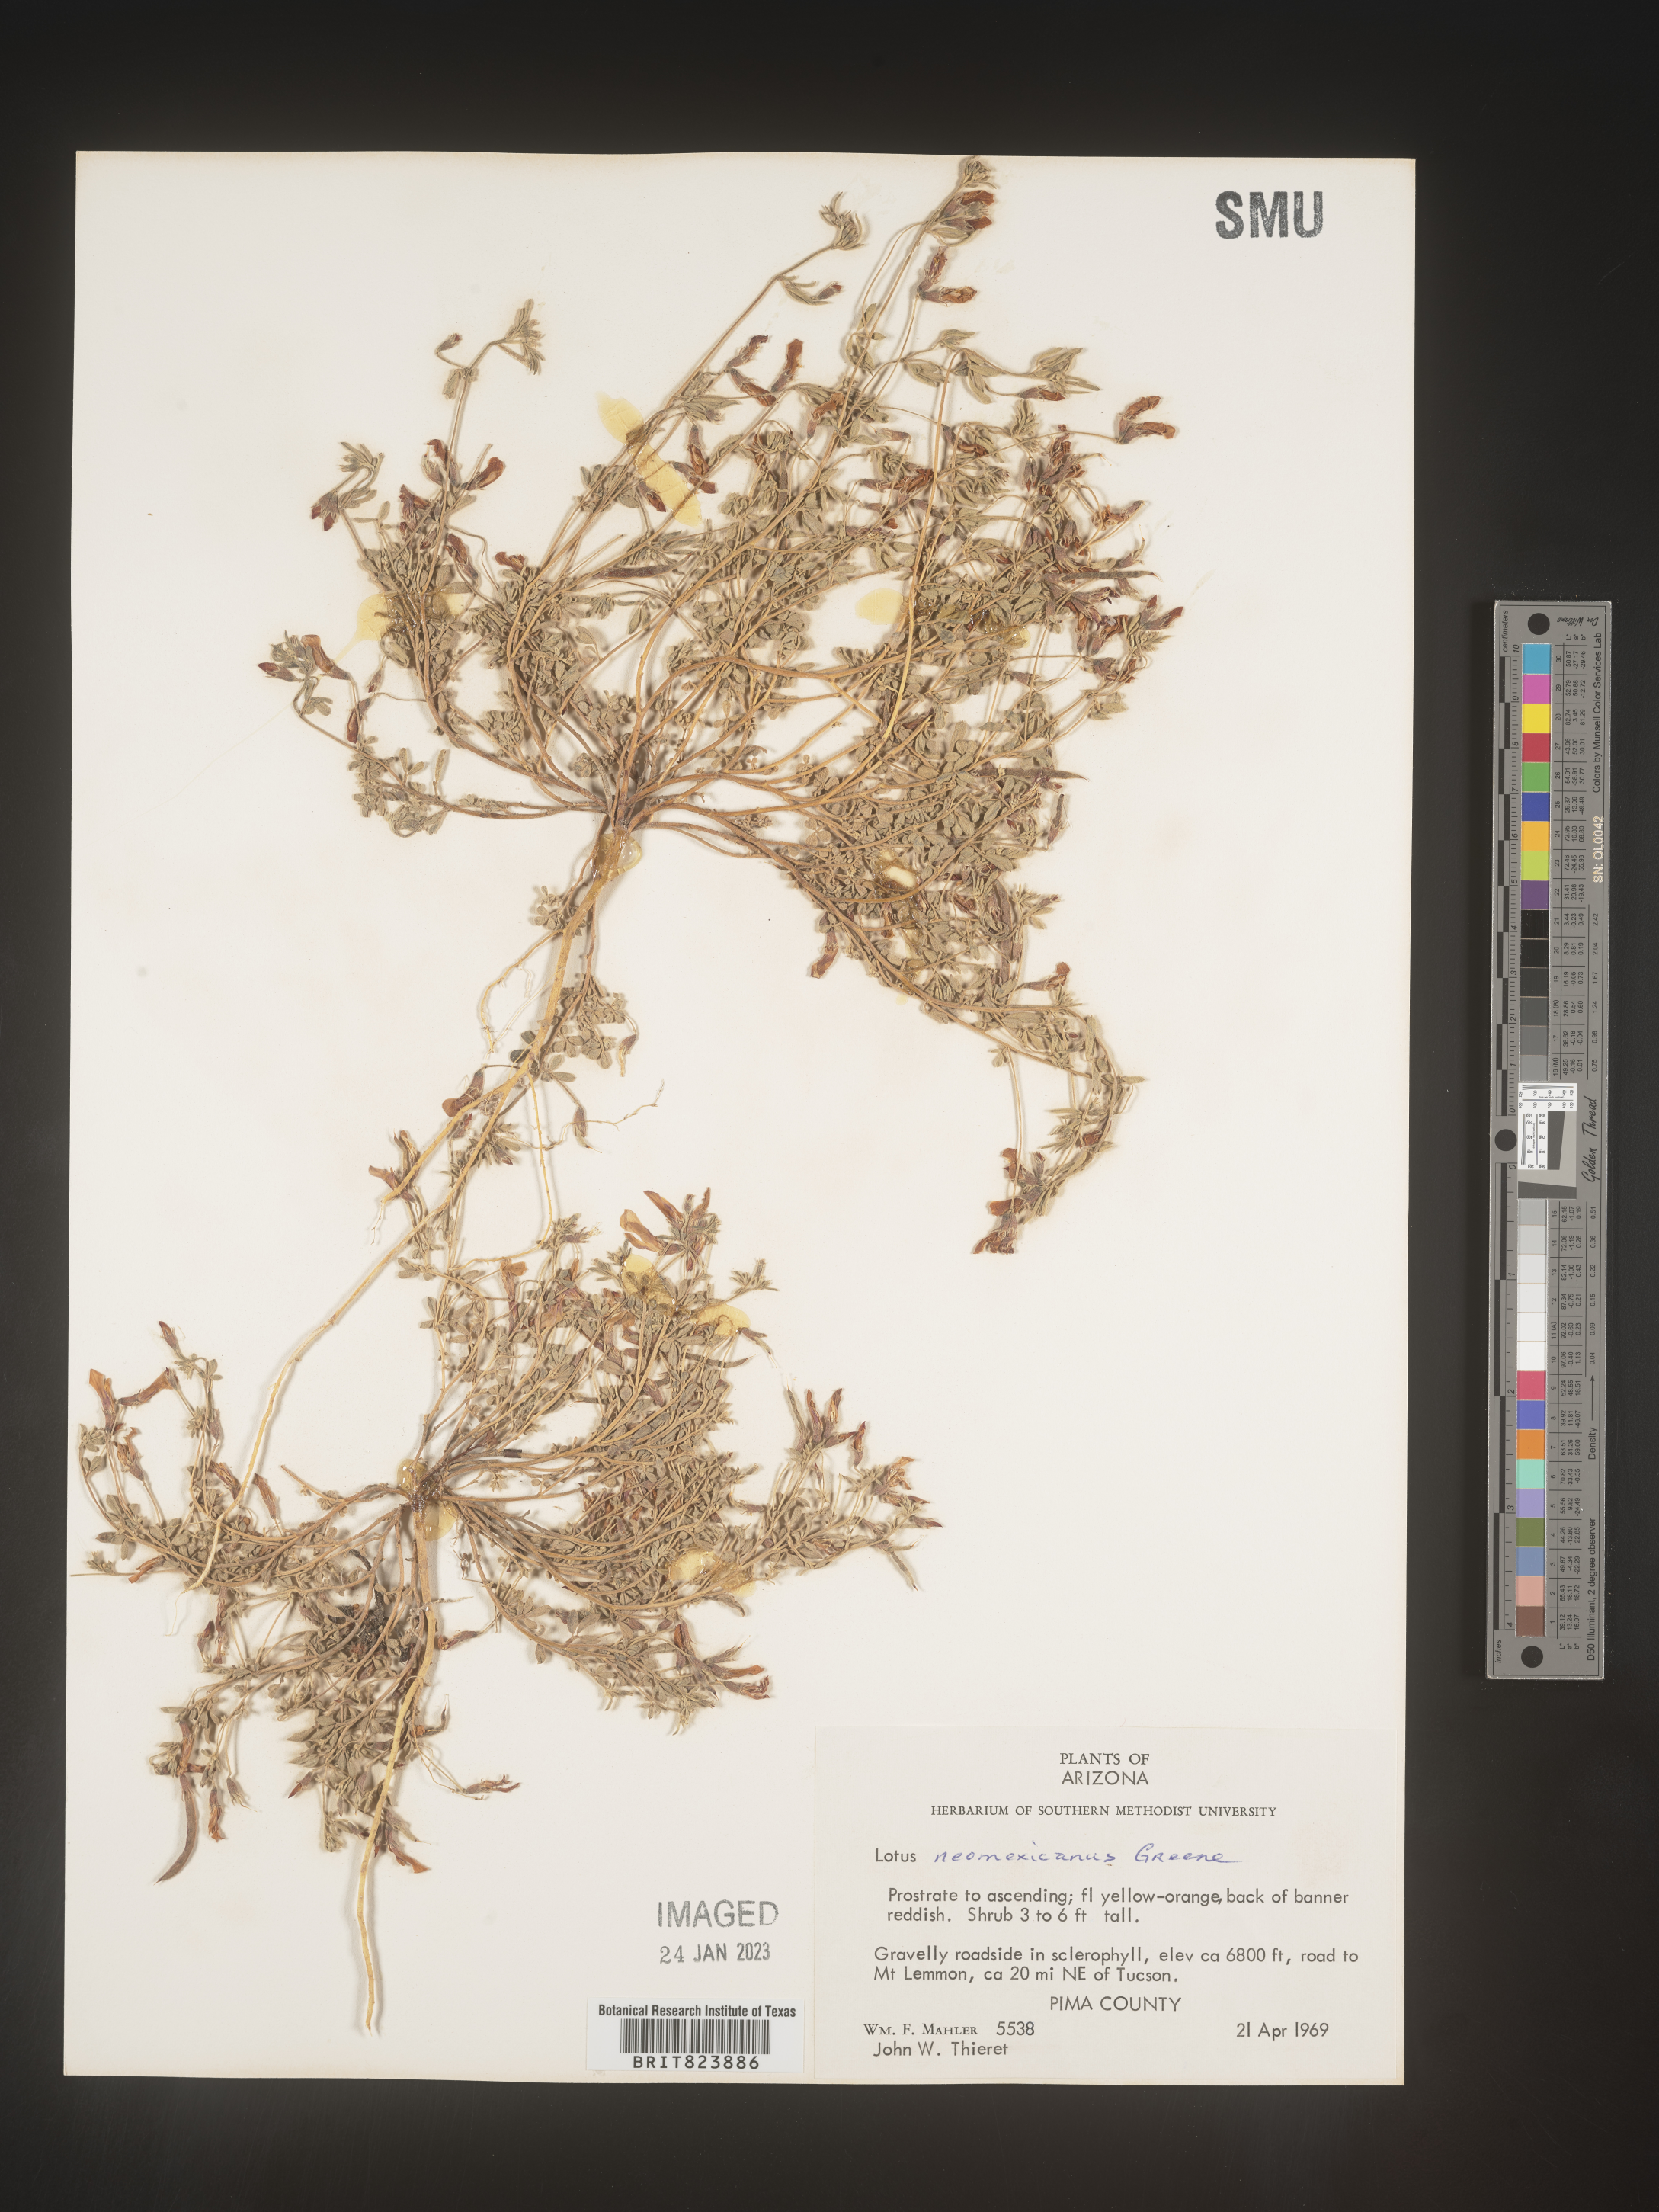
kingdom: Plantae
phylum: Tracheophyta
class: Magnoliopsida
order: Fabales
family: Fabaceae
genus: Lotus
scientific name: Lotus
